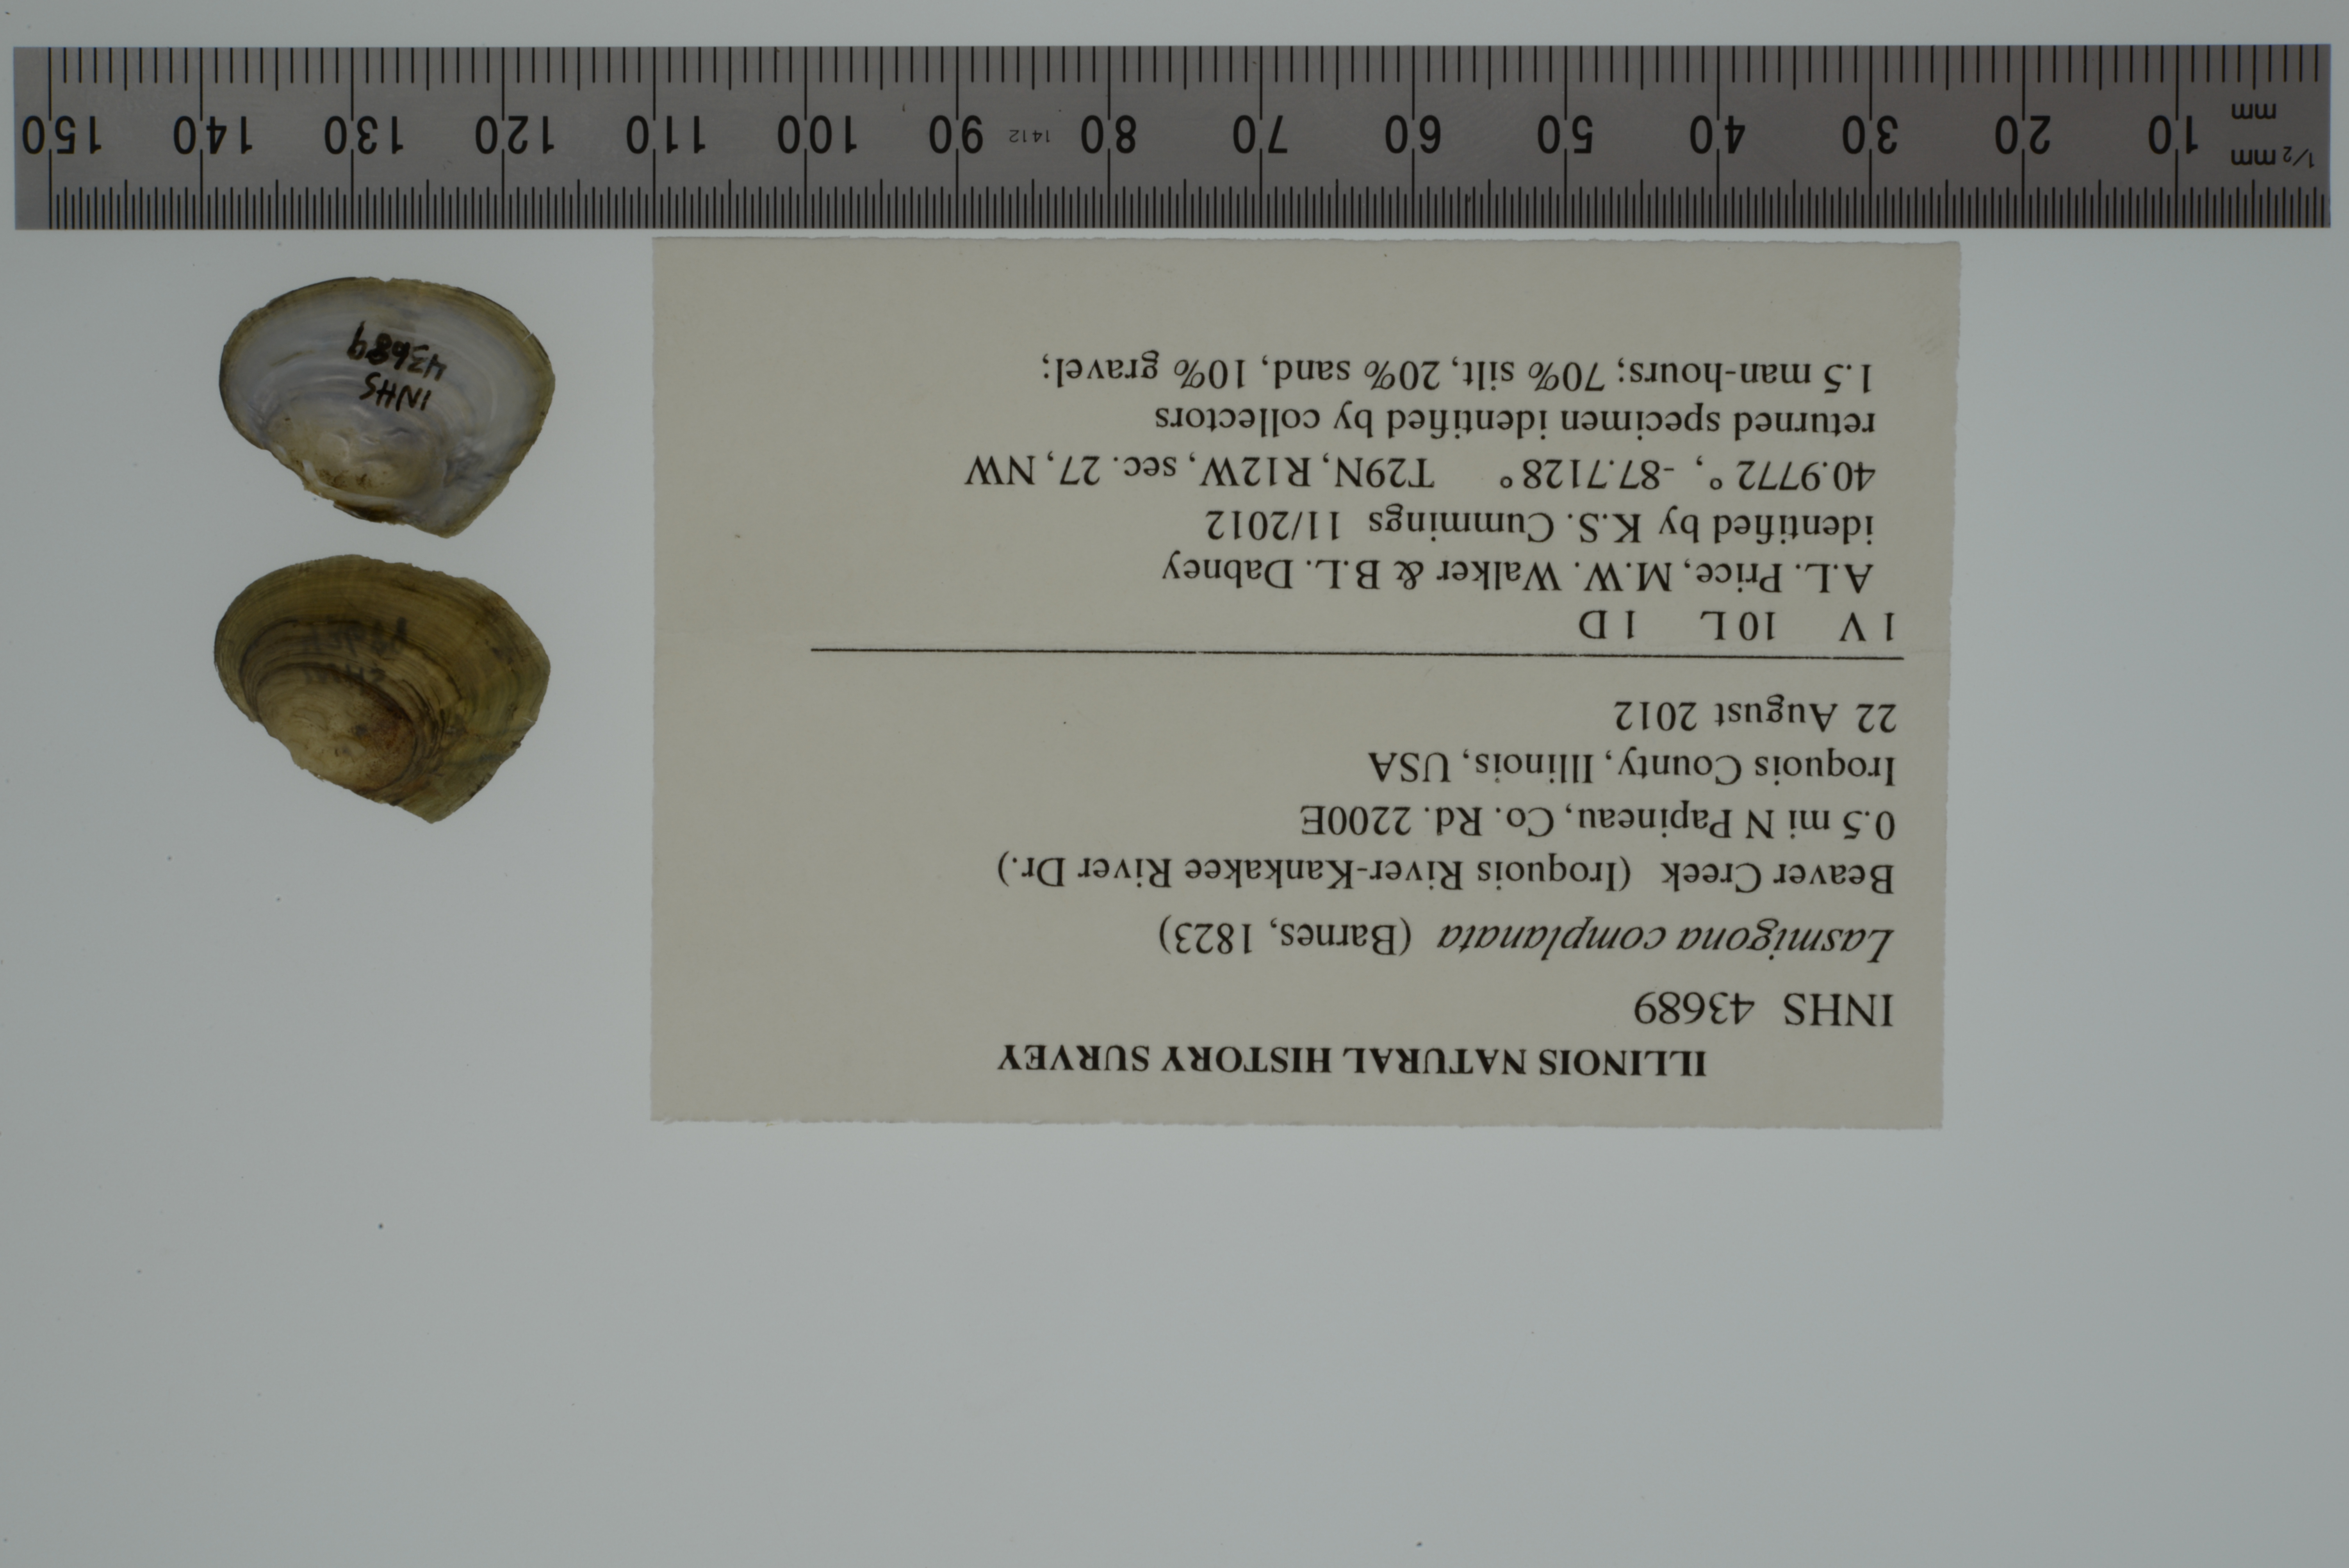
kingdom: Animalia
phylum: Mollusca
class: Bivalvia
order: Unionida
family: Unionidae
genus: Lasmigona
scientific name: Lasmigona complanata
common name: White heelsplitter
